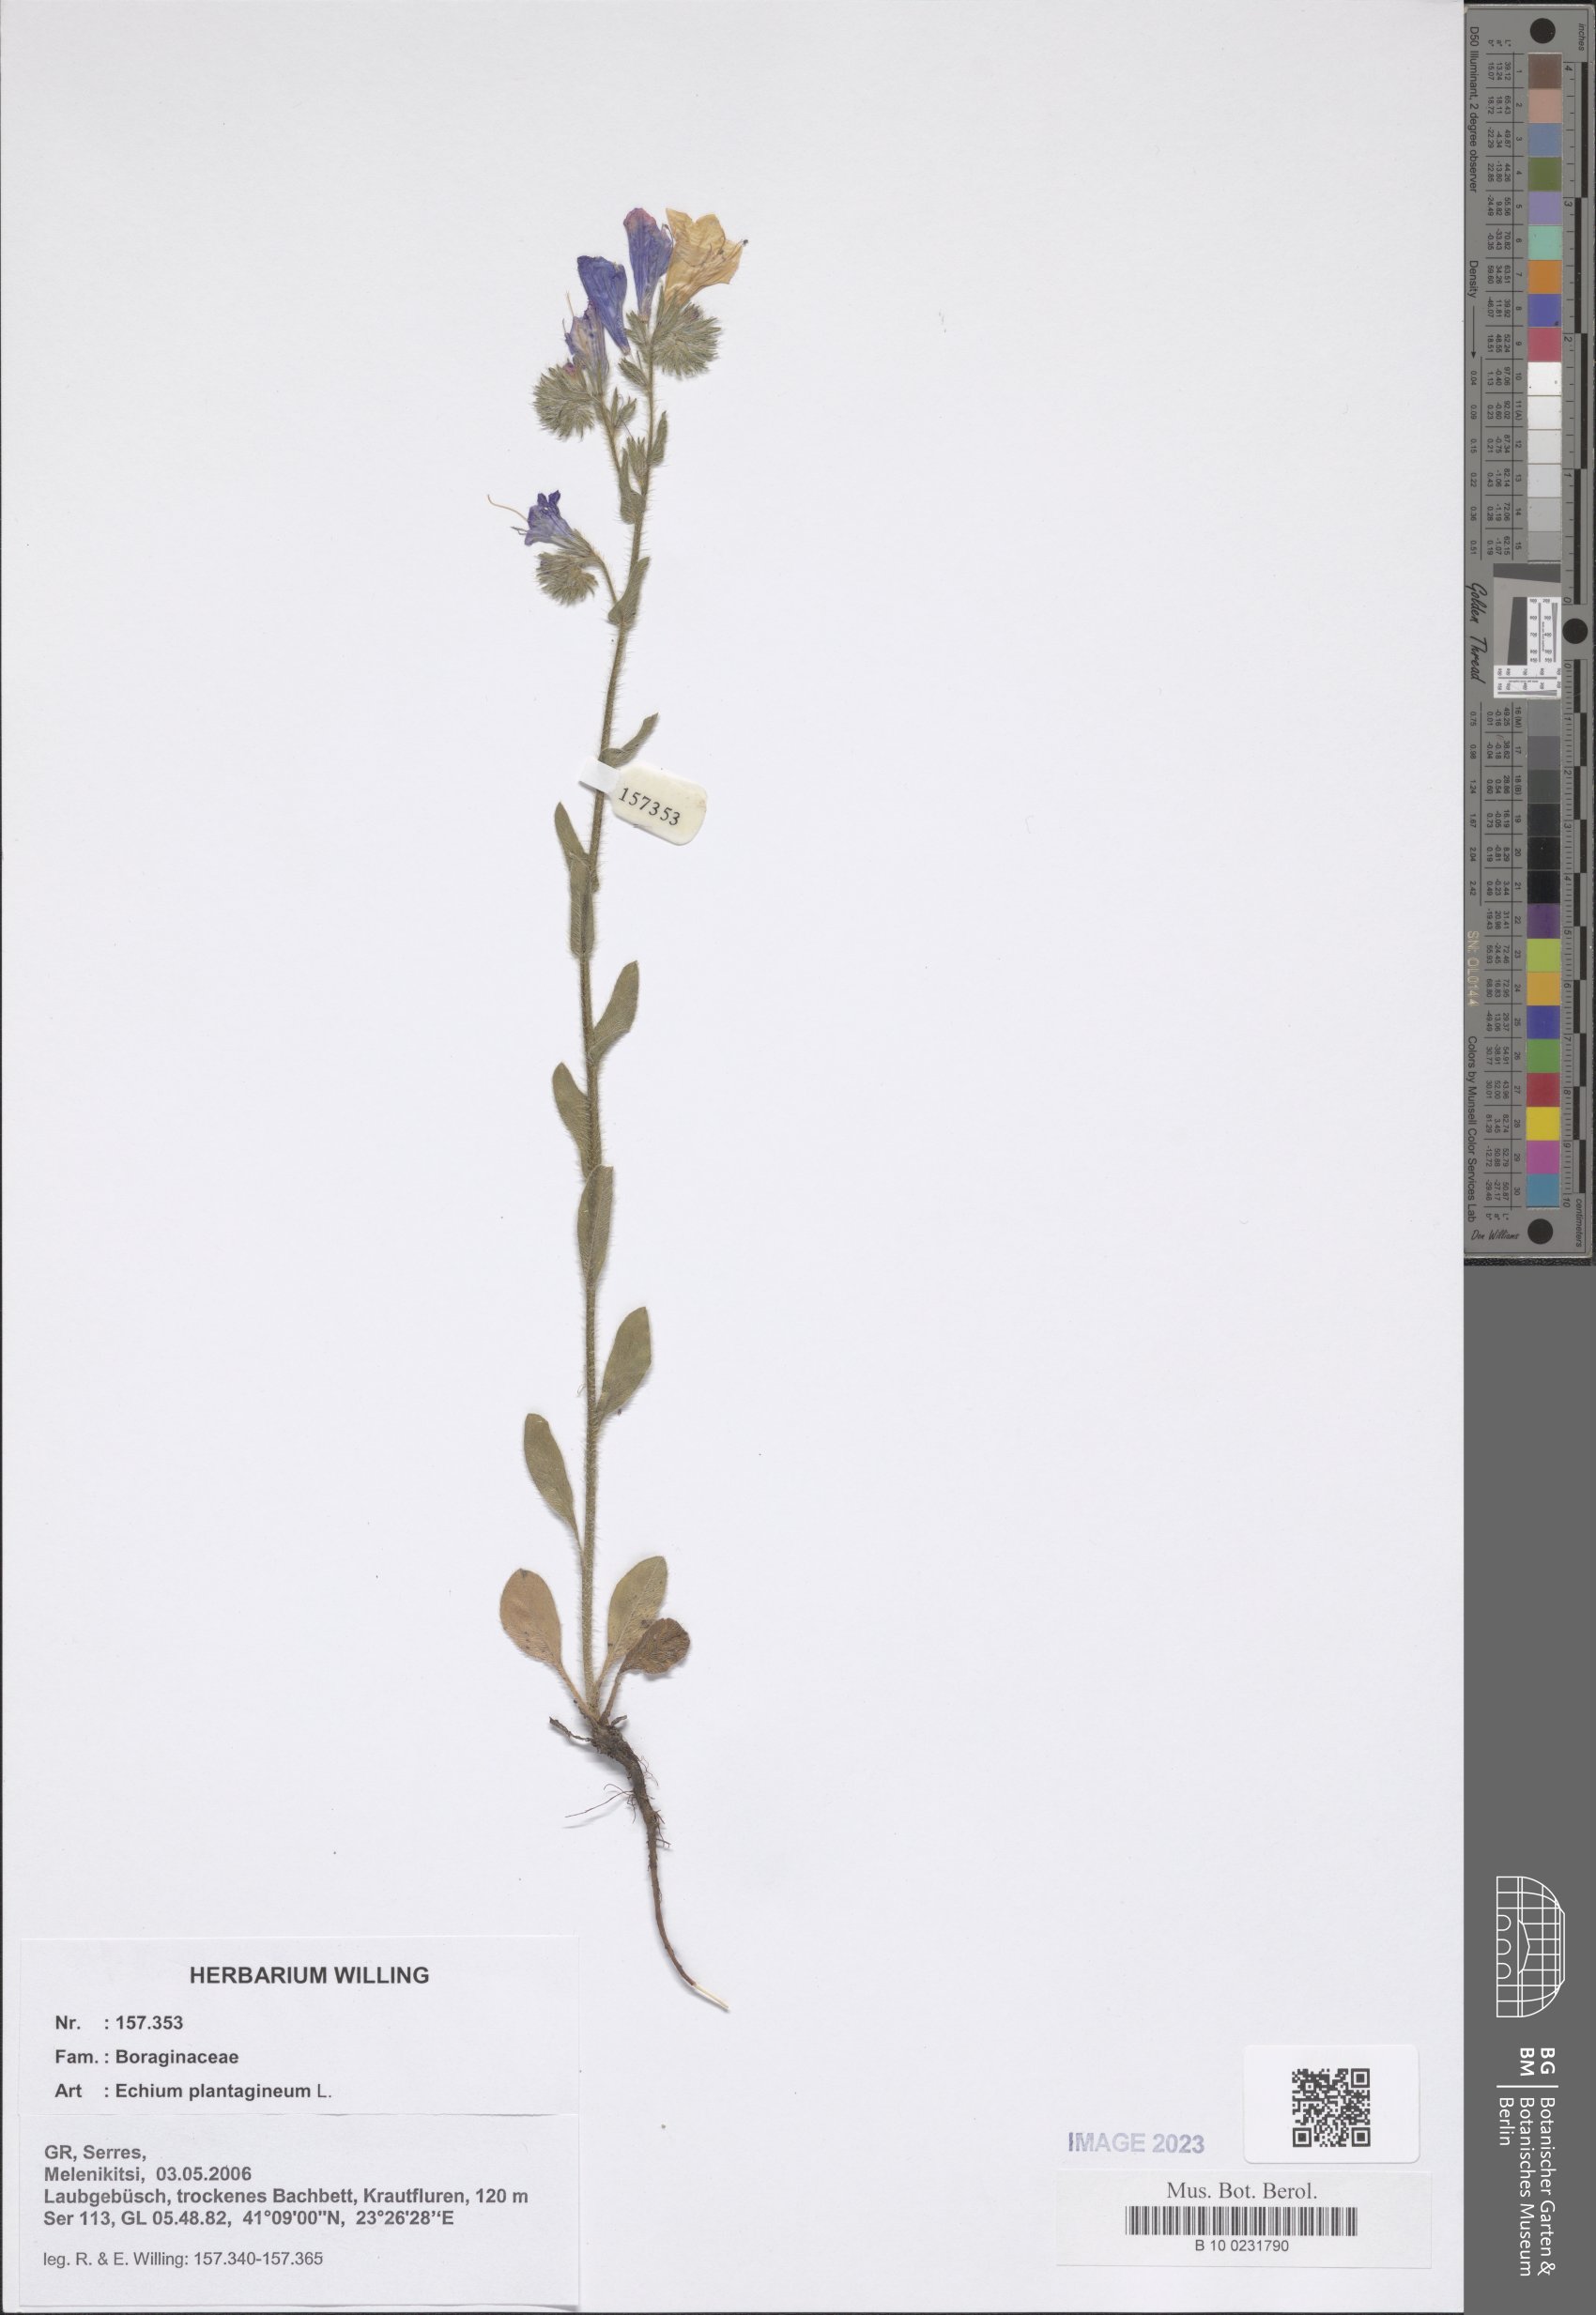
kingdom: Plantae
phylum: Tracheophyta
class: Magnoliopsida
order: Boraginales
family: Boraginaceae
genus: Echium
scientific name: Echium plantagineum
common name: Purple viper's-bugloss
